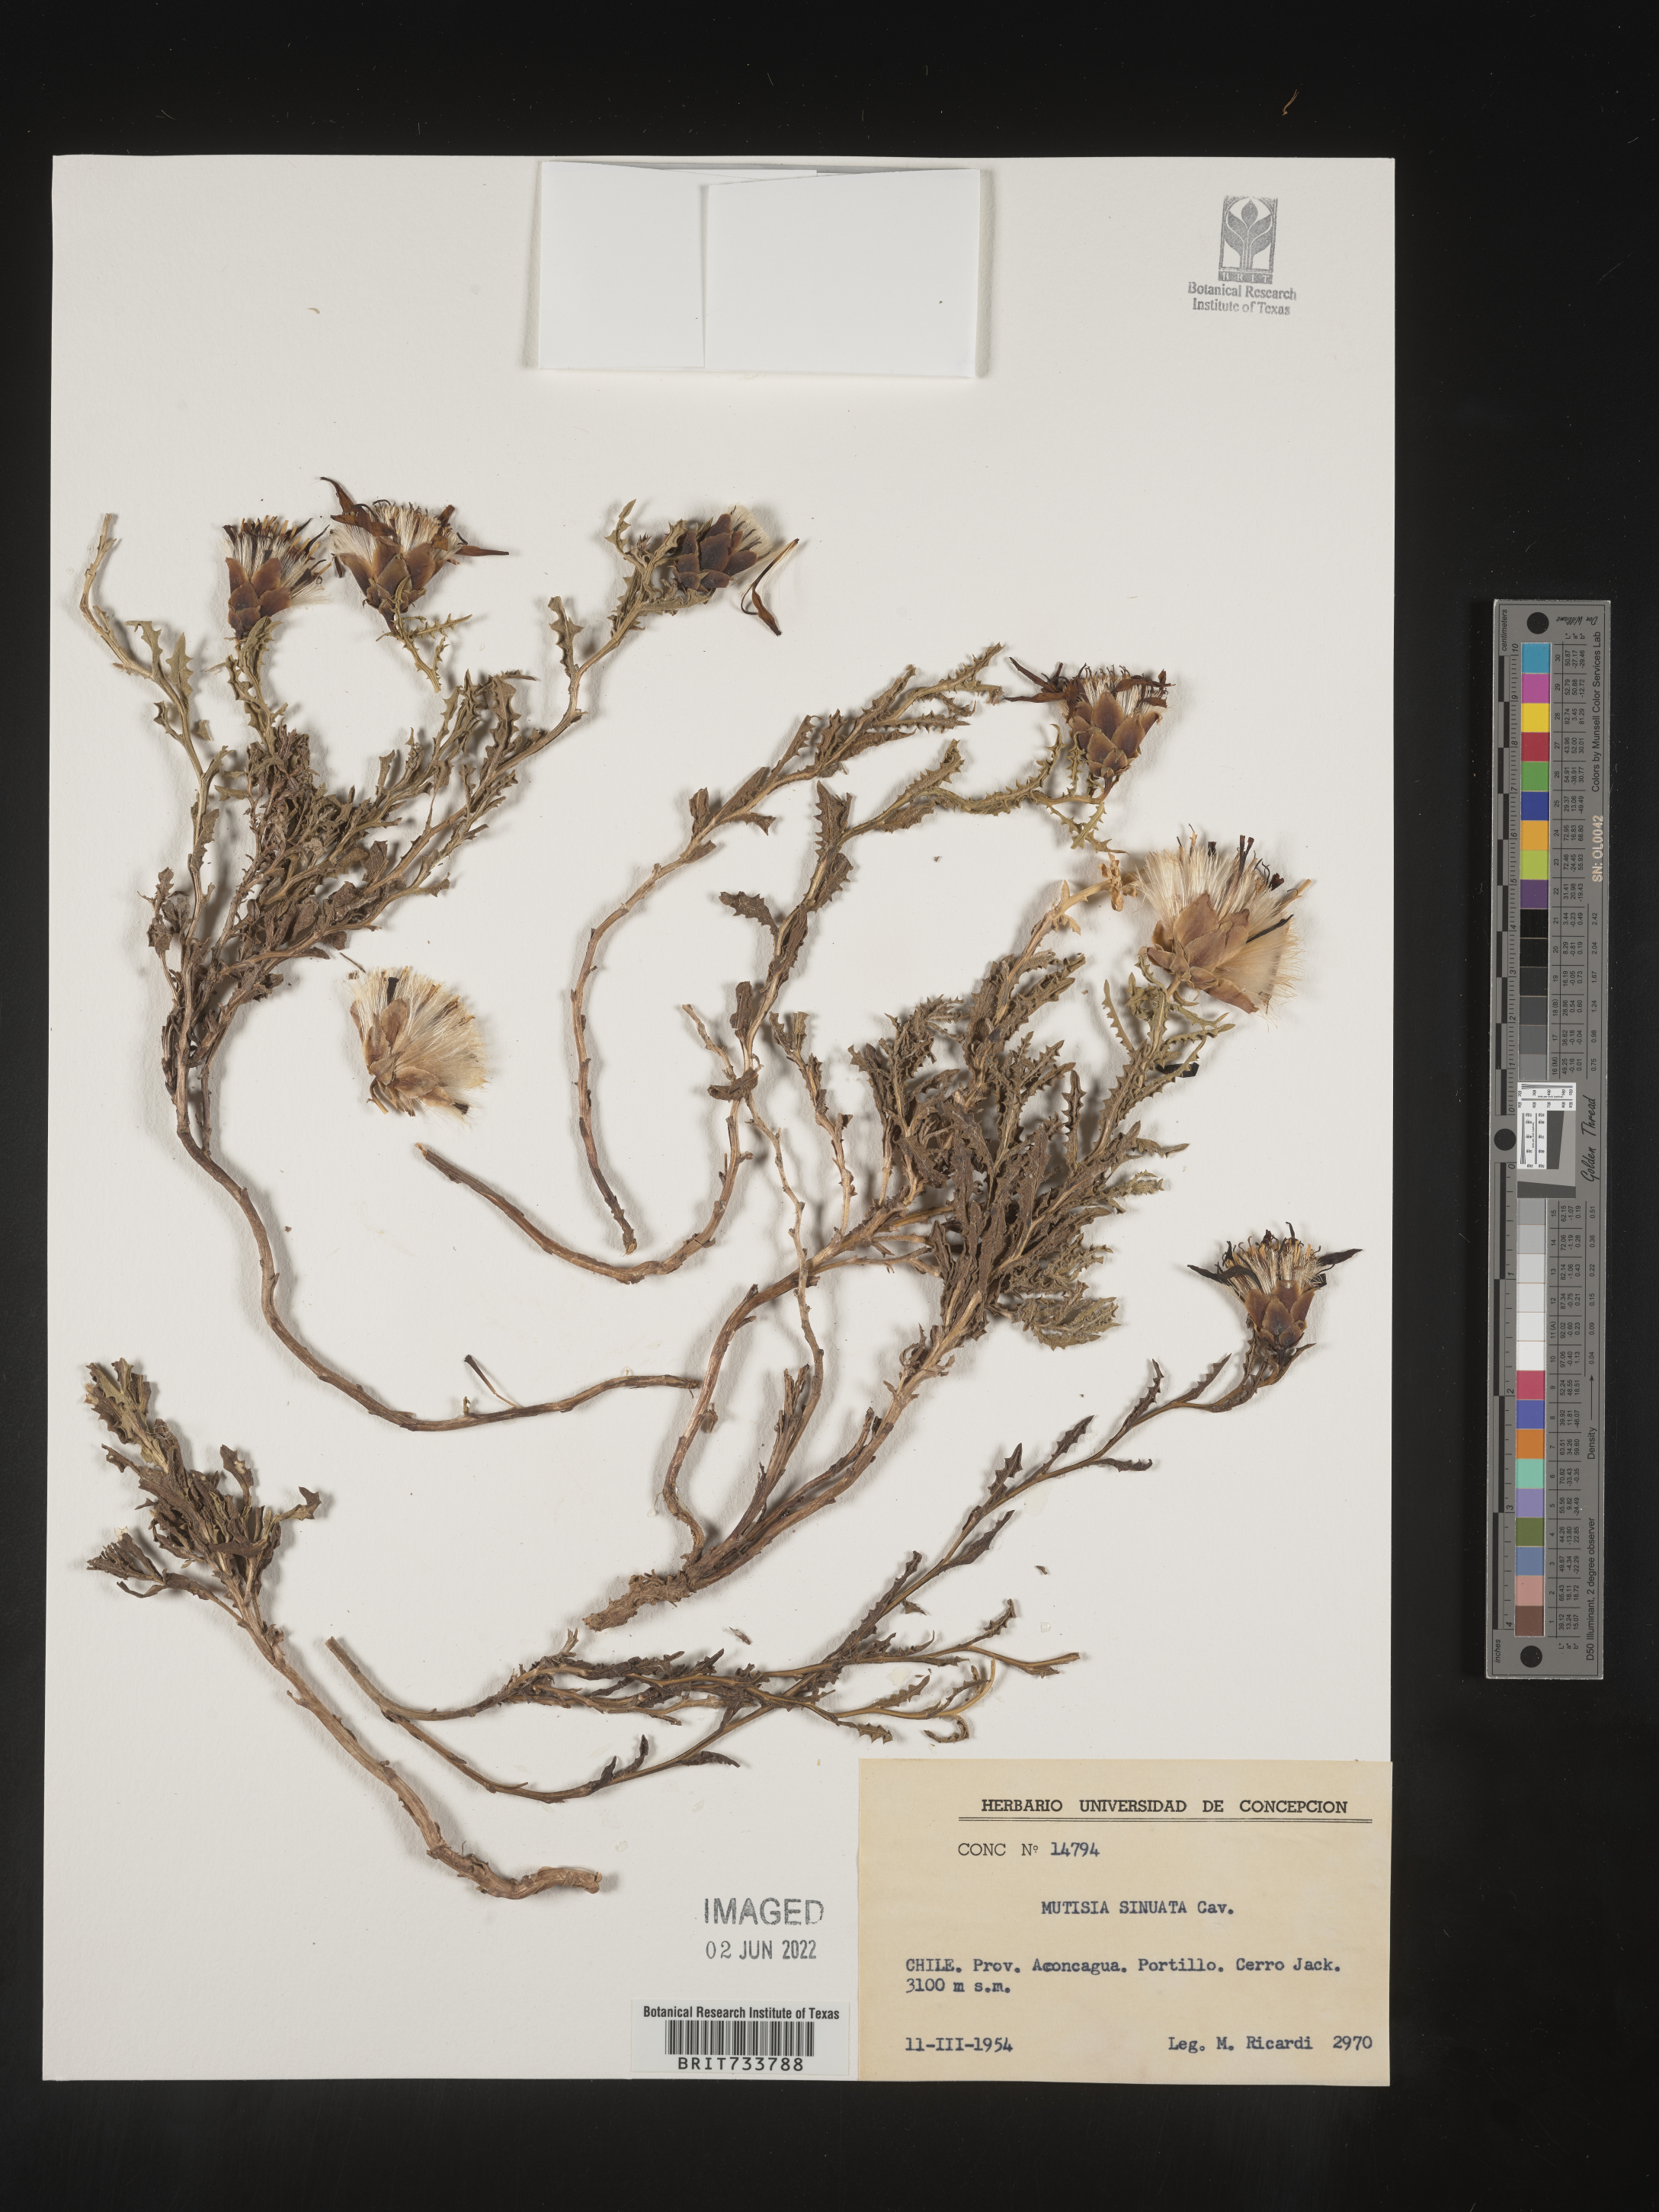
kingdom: Plantae
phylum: Tracheophyta
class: Magnoliopsida
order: Asterales
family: Asteraceae
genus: Mutisia
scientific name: Mutisia
